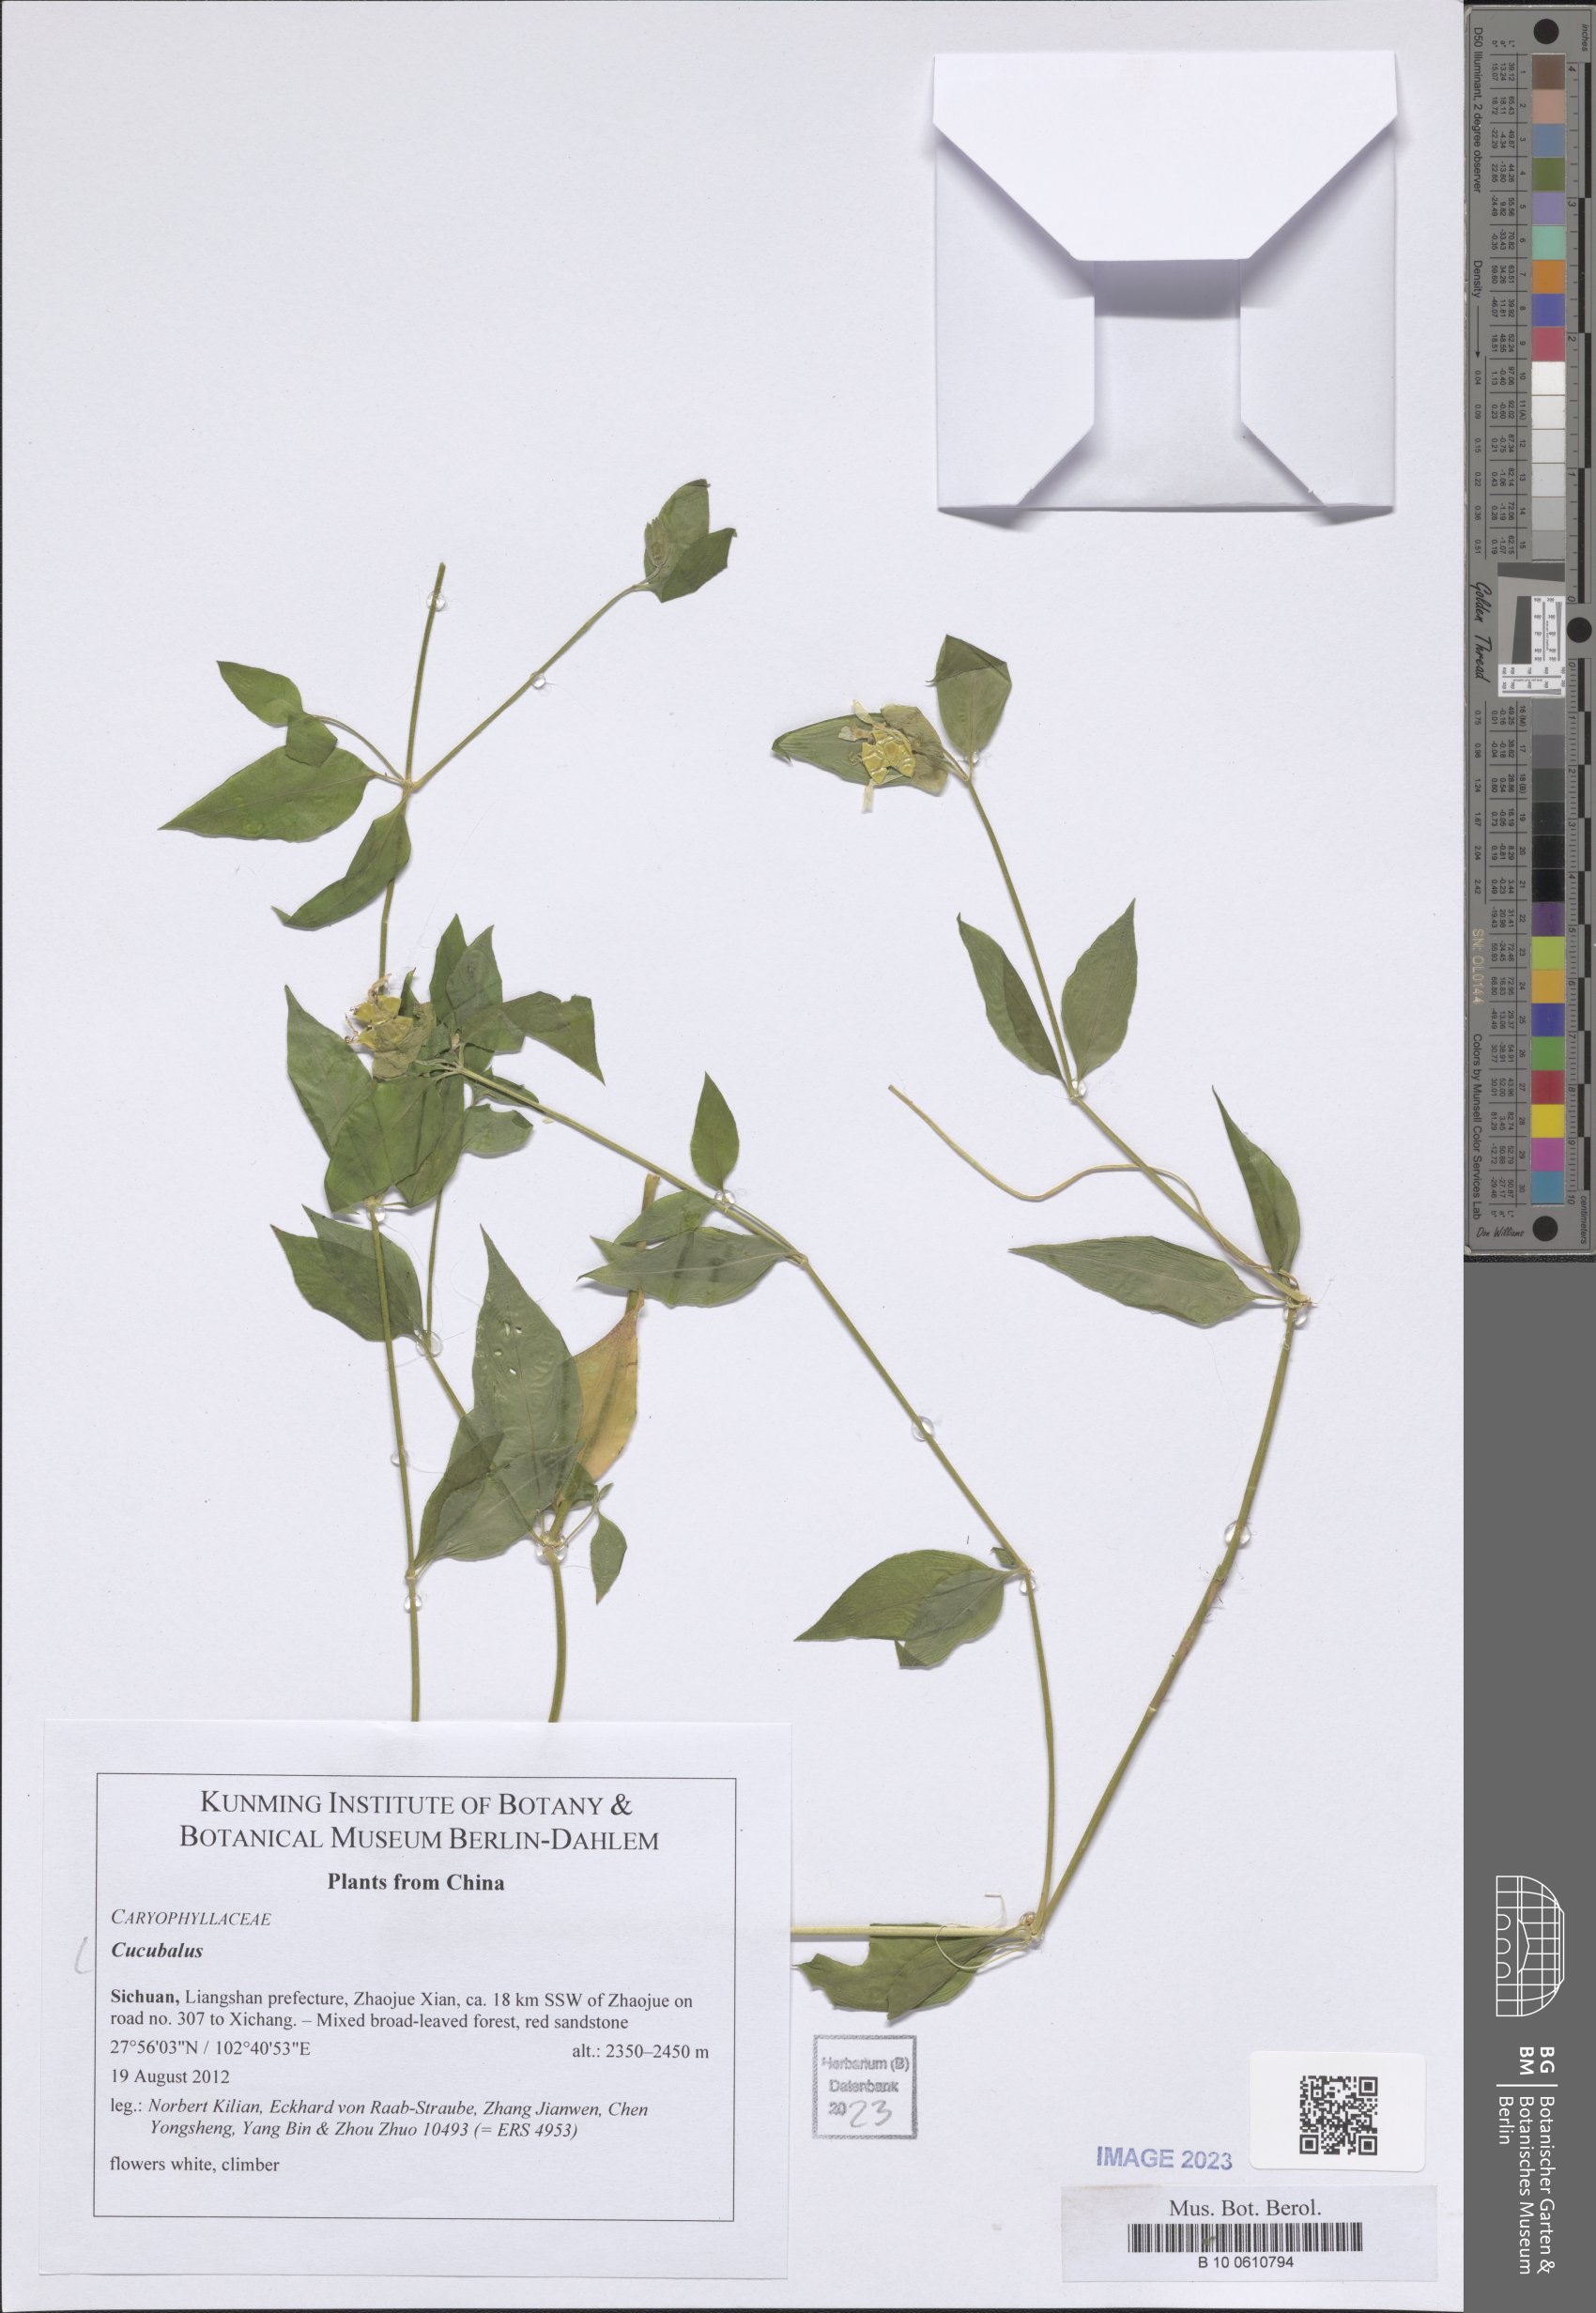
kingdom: Animalia
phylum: Cnidaria
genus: Cucubalus
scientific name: Cucubalus
